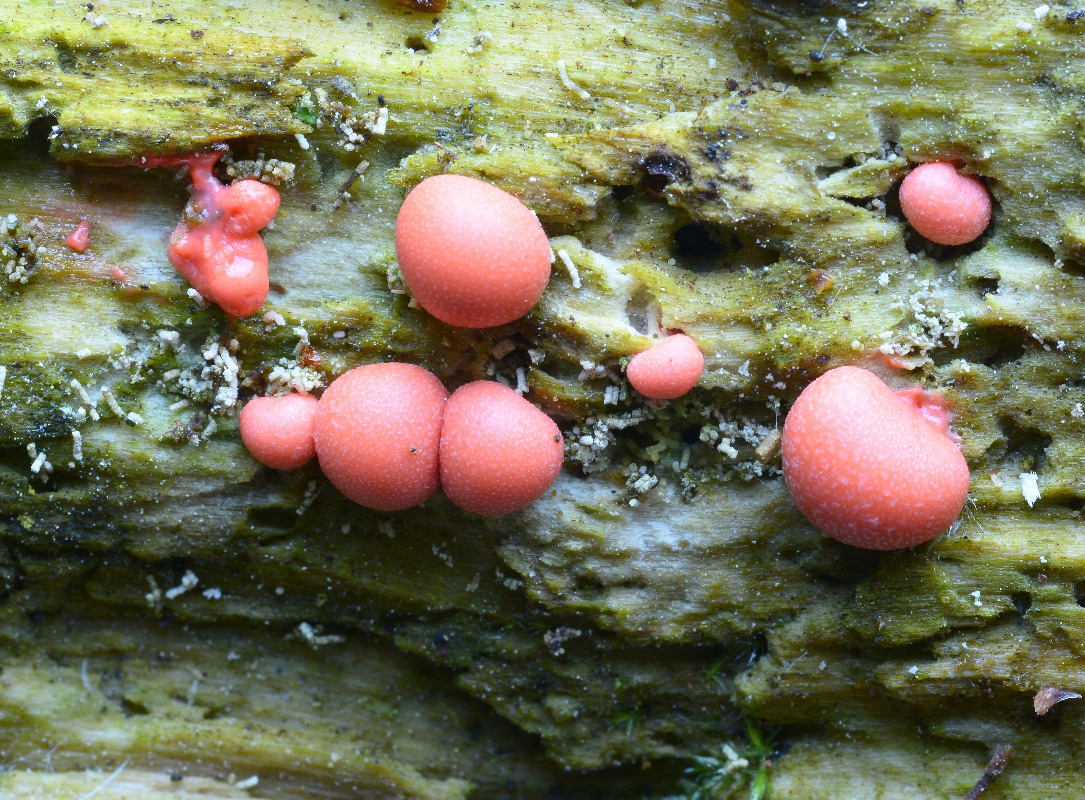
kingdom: Protozoa
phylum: Mycetozoa
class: Myxomycetes
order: Cribrariales
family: Tubiferaceae
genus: Lycogala
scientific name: Lycogala epidendrum
